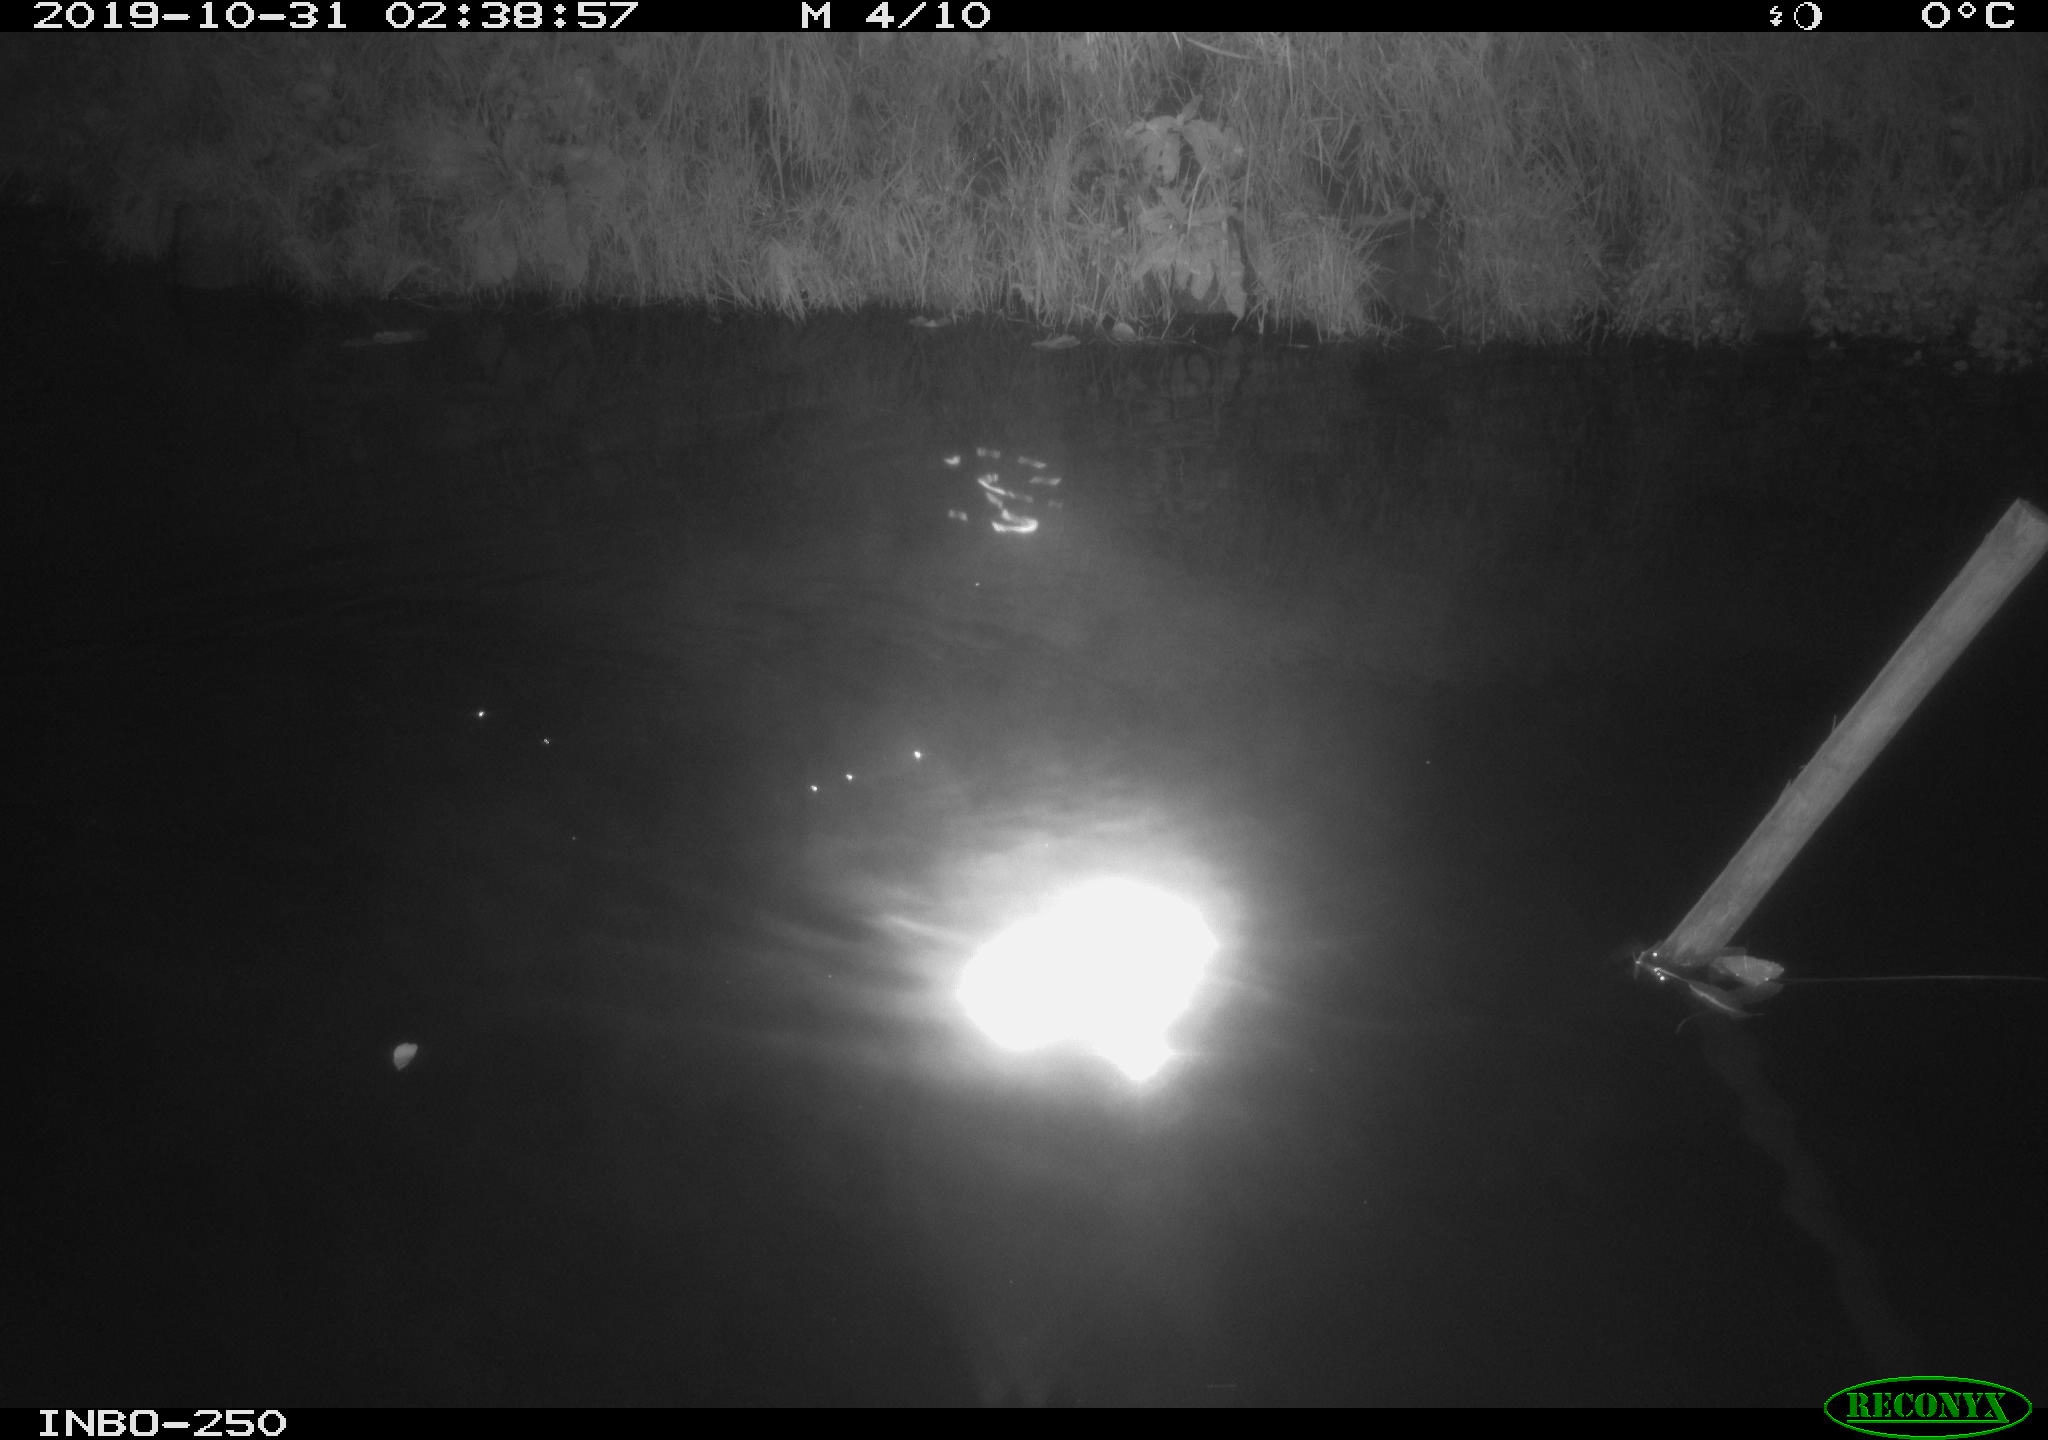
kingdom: Animalia
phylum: Chordata
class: Aves
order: Anseriformes
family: Anatidae
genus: Anas
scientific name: Anas platyrhynchos
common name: Mallard
